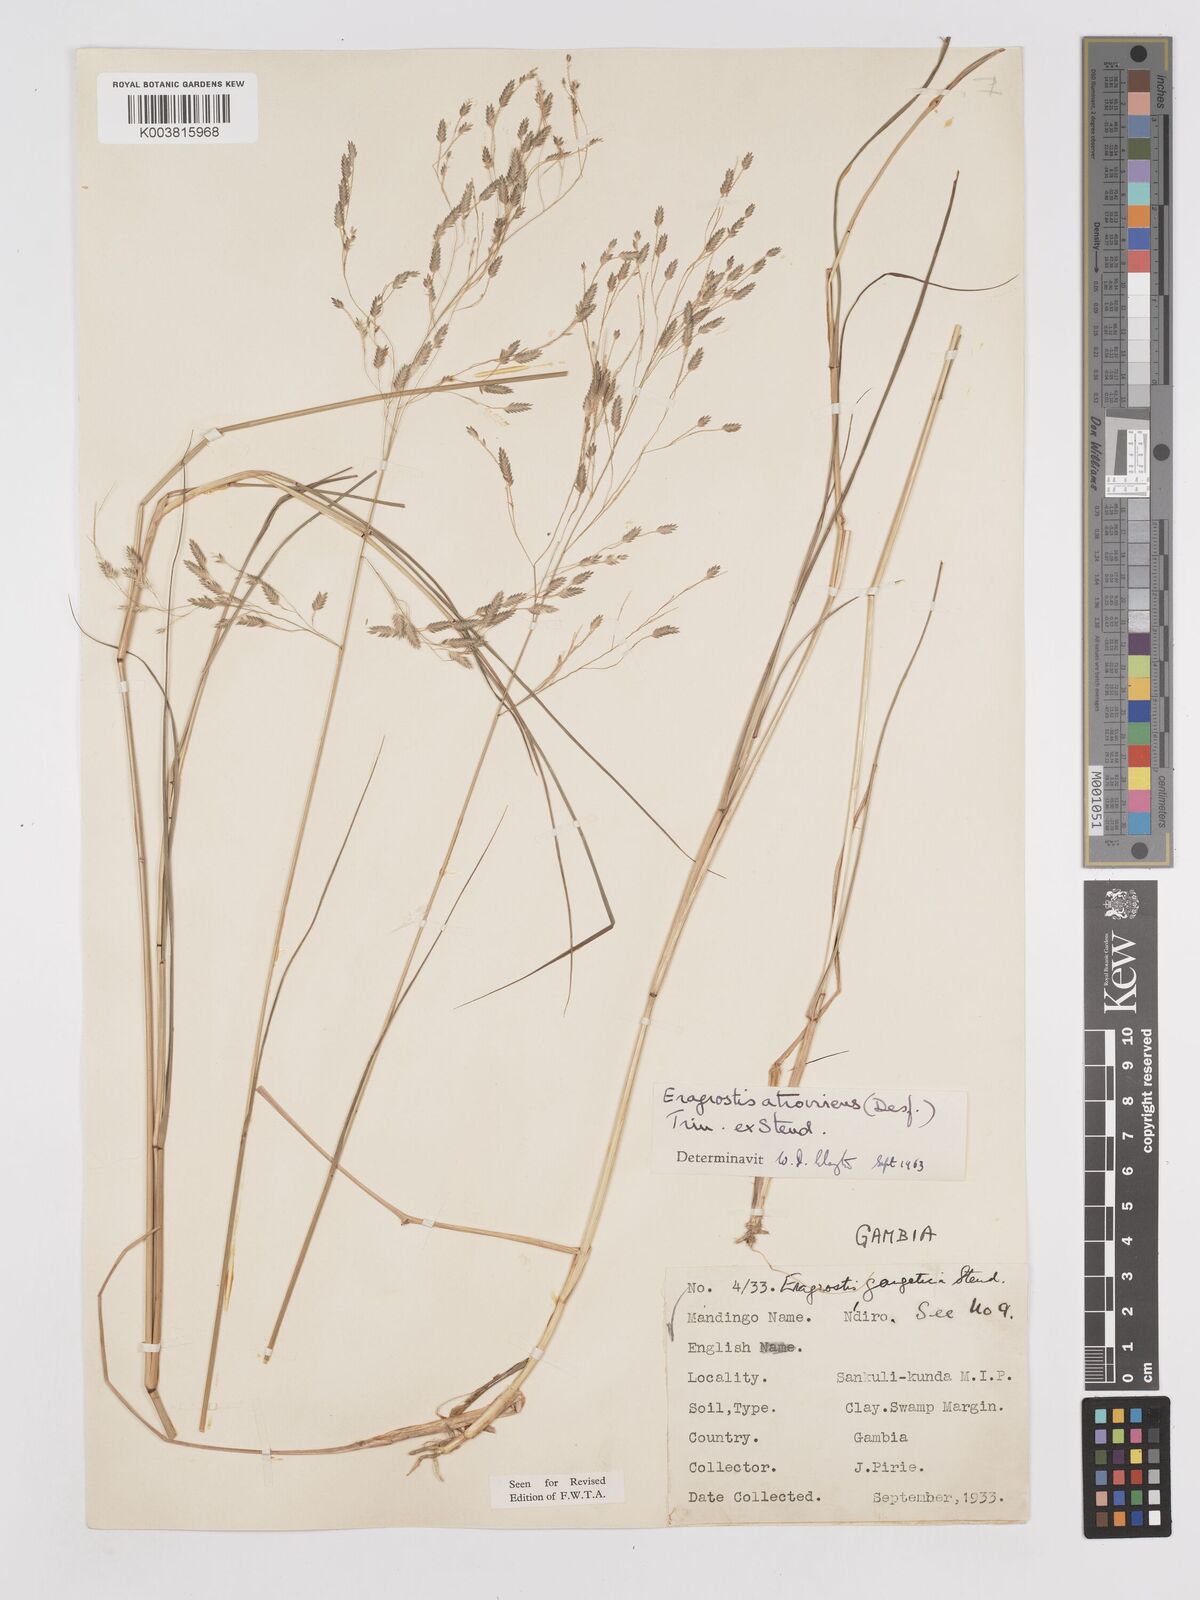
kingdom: Plantae
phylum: Tracheophyta
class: Liliopsida
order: Poales
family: Poaceae
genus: Eragrostis
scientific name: Eragrostis atrovirens
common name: Thalia lovegrass
